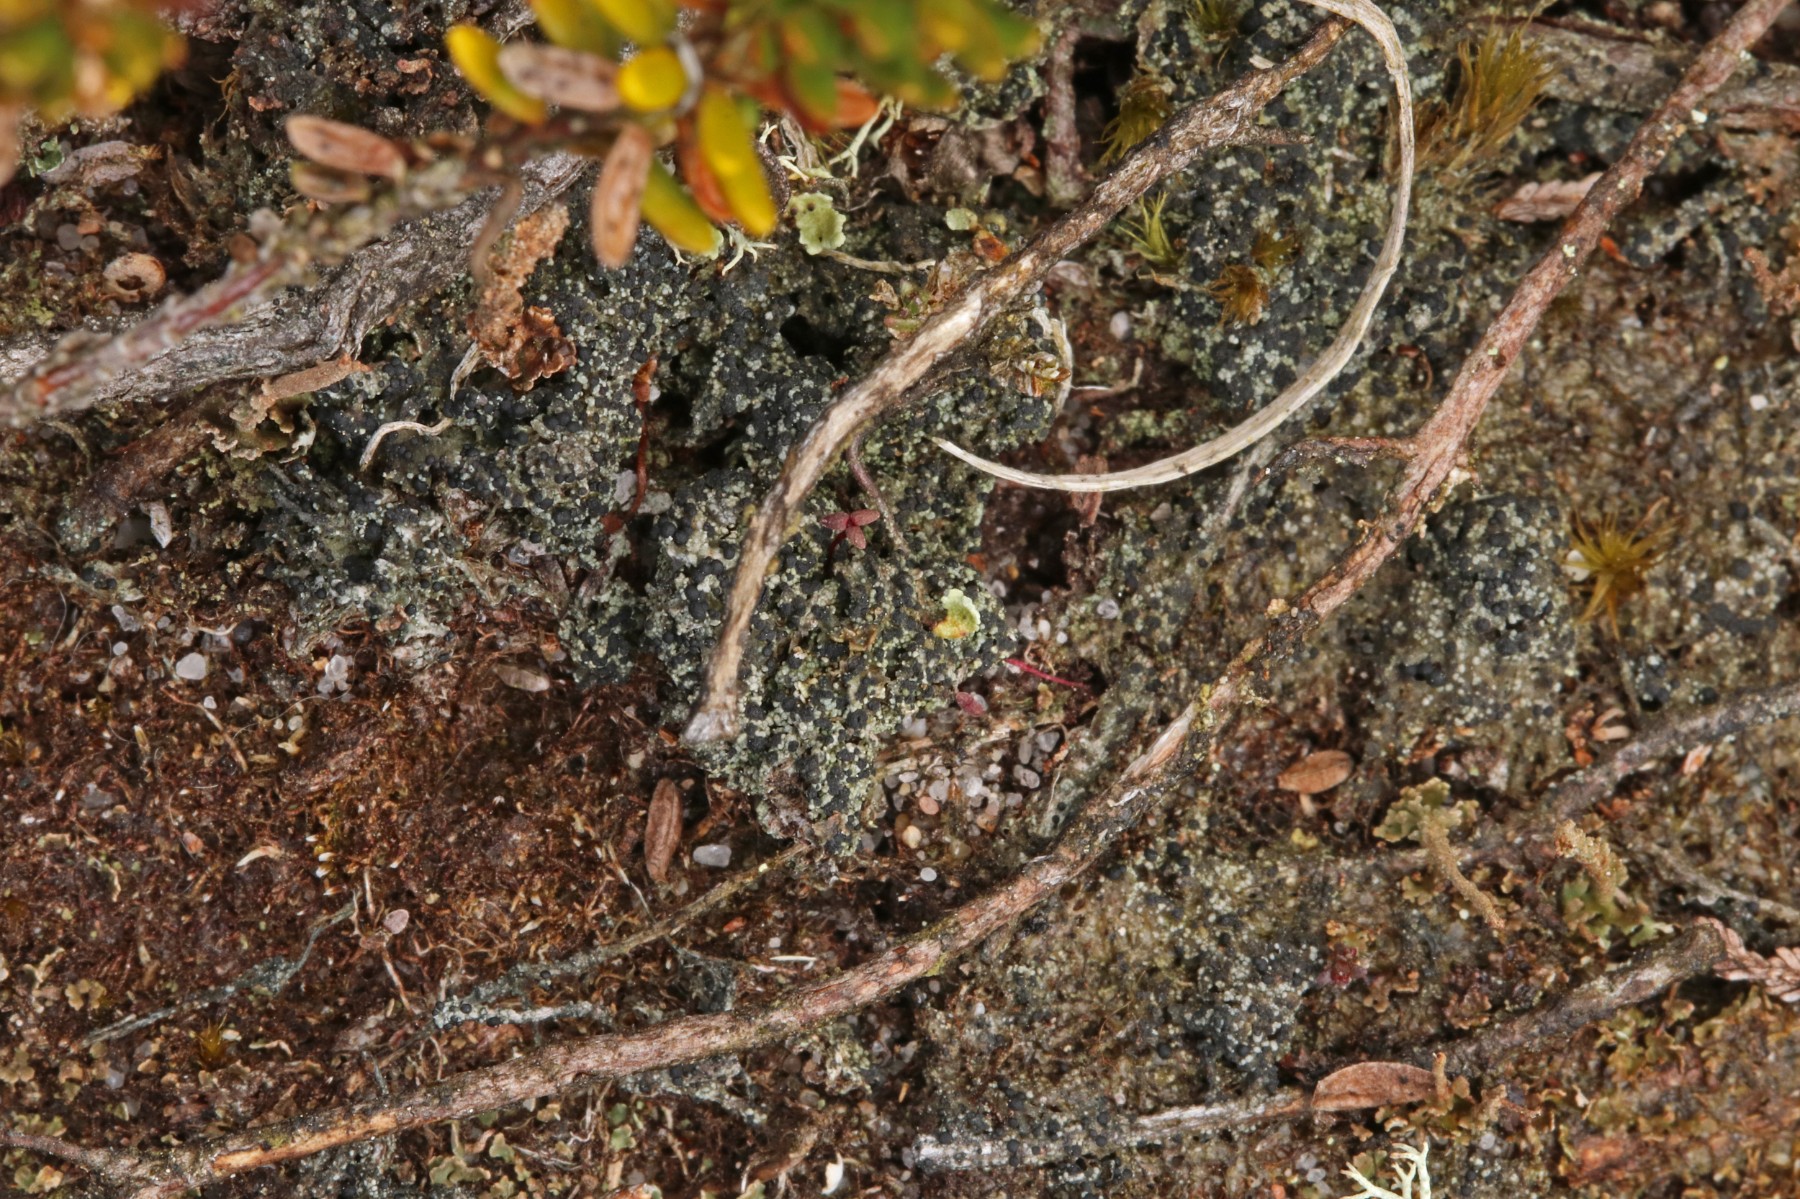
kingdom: Fungi
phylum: Ascomycota
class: Lecanoromycetes
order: Lecanorales
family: Byssolomataceae
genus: Micarea
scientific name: Micarea lignaria
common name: tørve-knaplav
